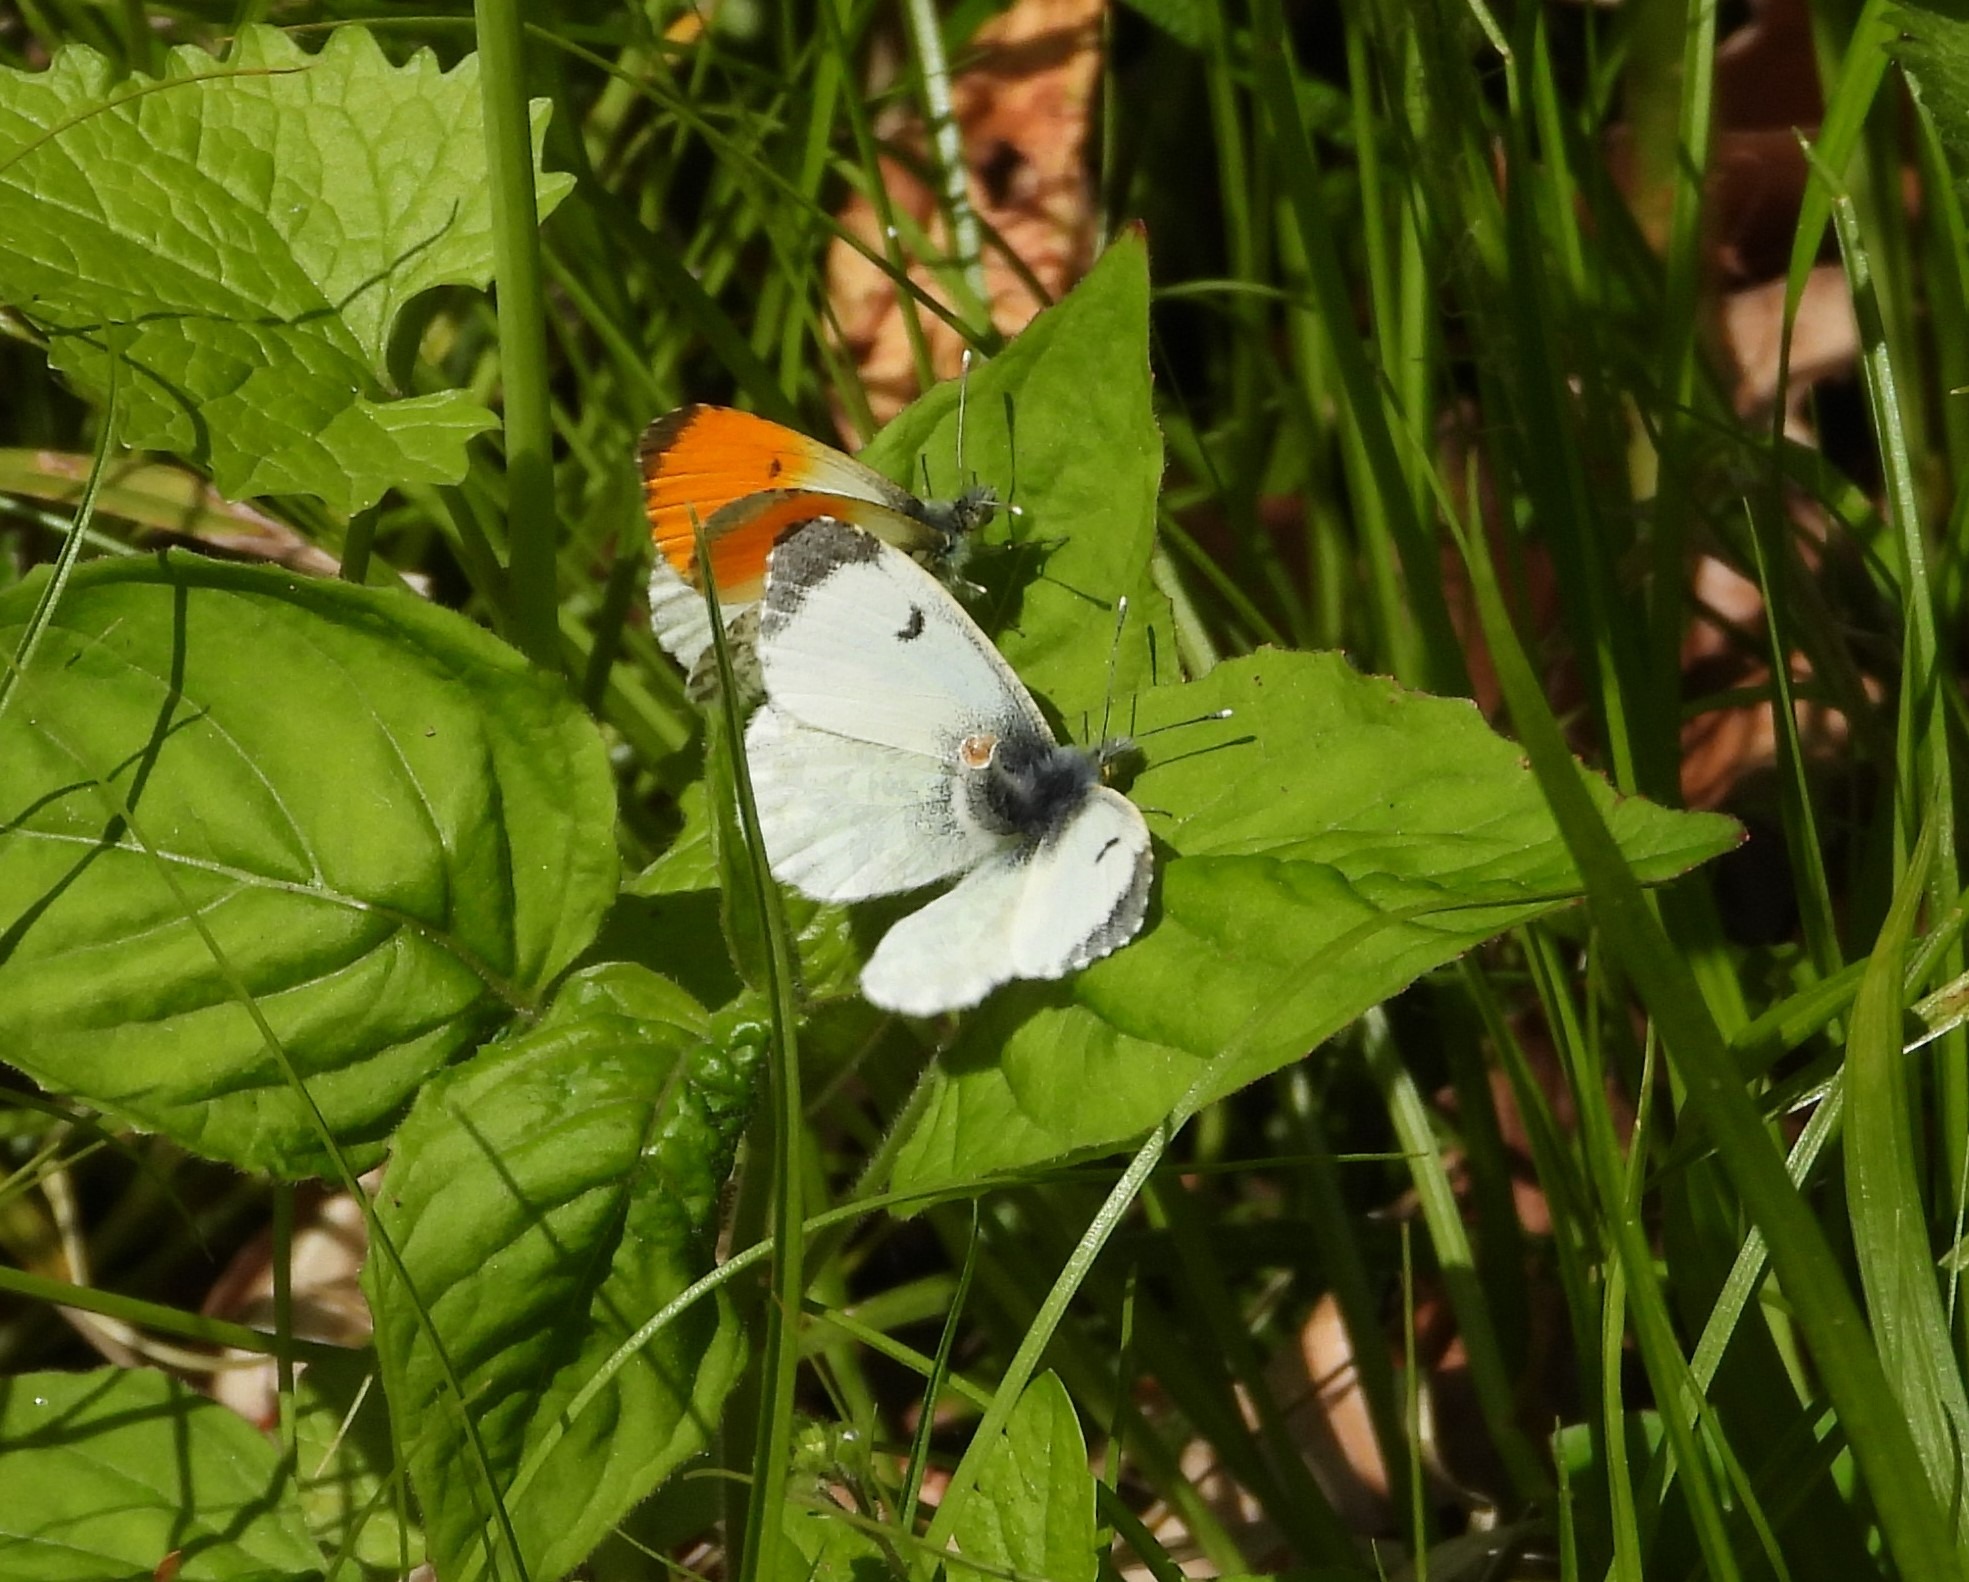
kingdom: Animalia
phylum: Arthropoda
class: Insecta
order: Lepidoptera
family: Pieridae
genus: Anthocharis
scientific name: Anthocharis cardamines
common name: Aurora
